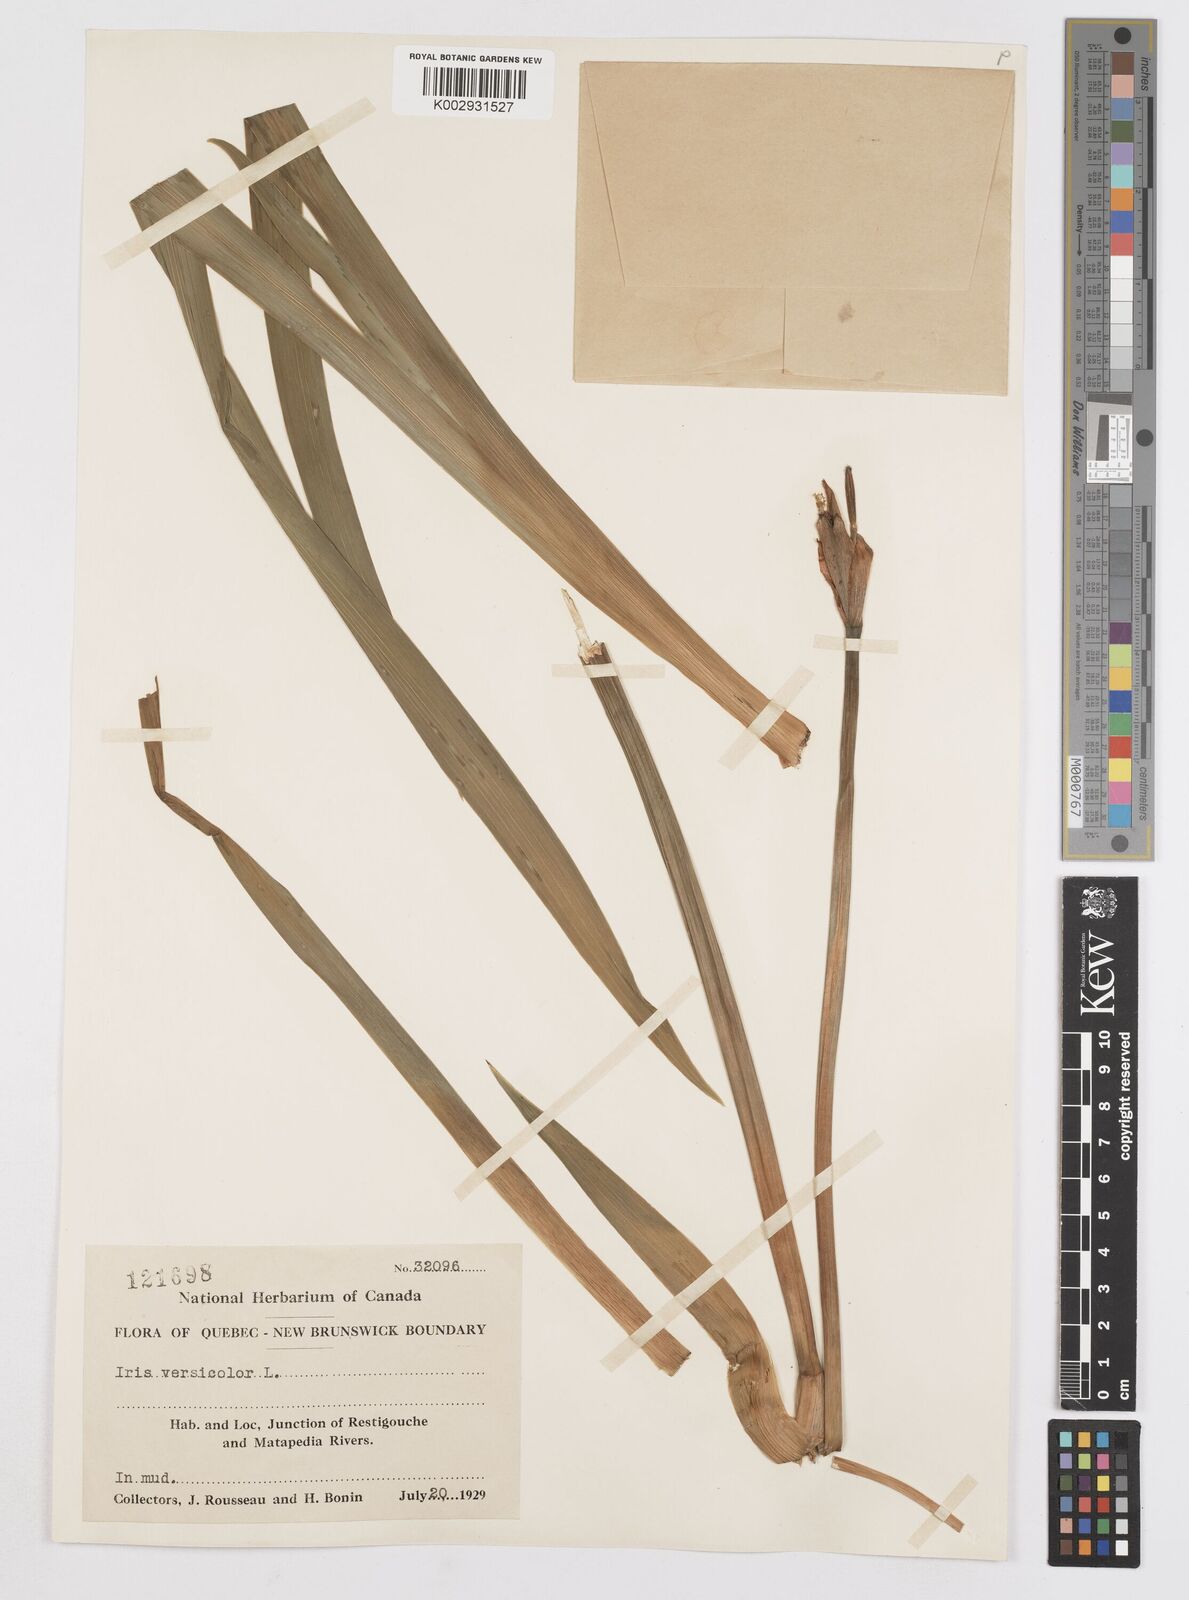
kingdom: Plantae
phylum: Tracheophyta
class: Liliopsida
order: Asparagales
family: Iridaceae
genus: Iris
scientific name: Iris versicolor
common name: Purple iris
